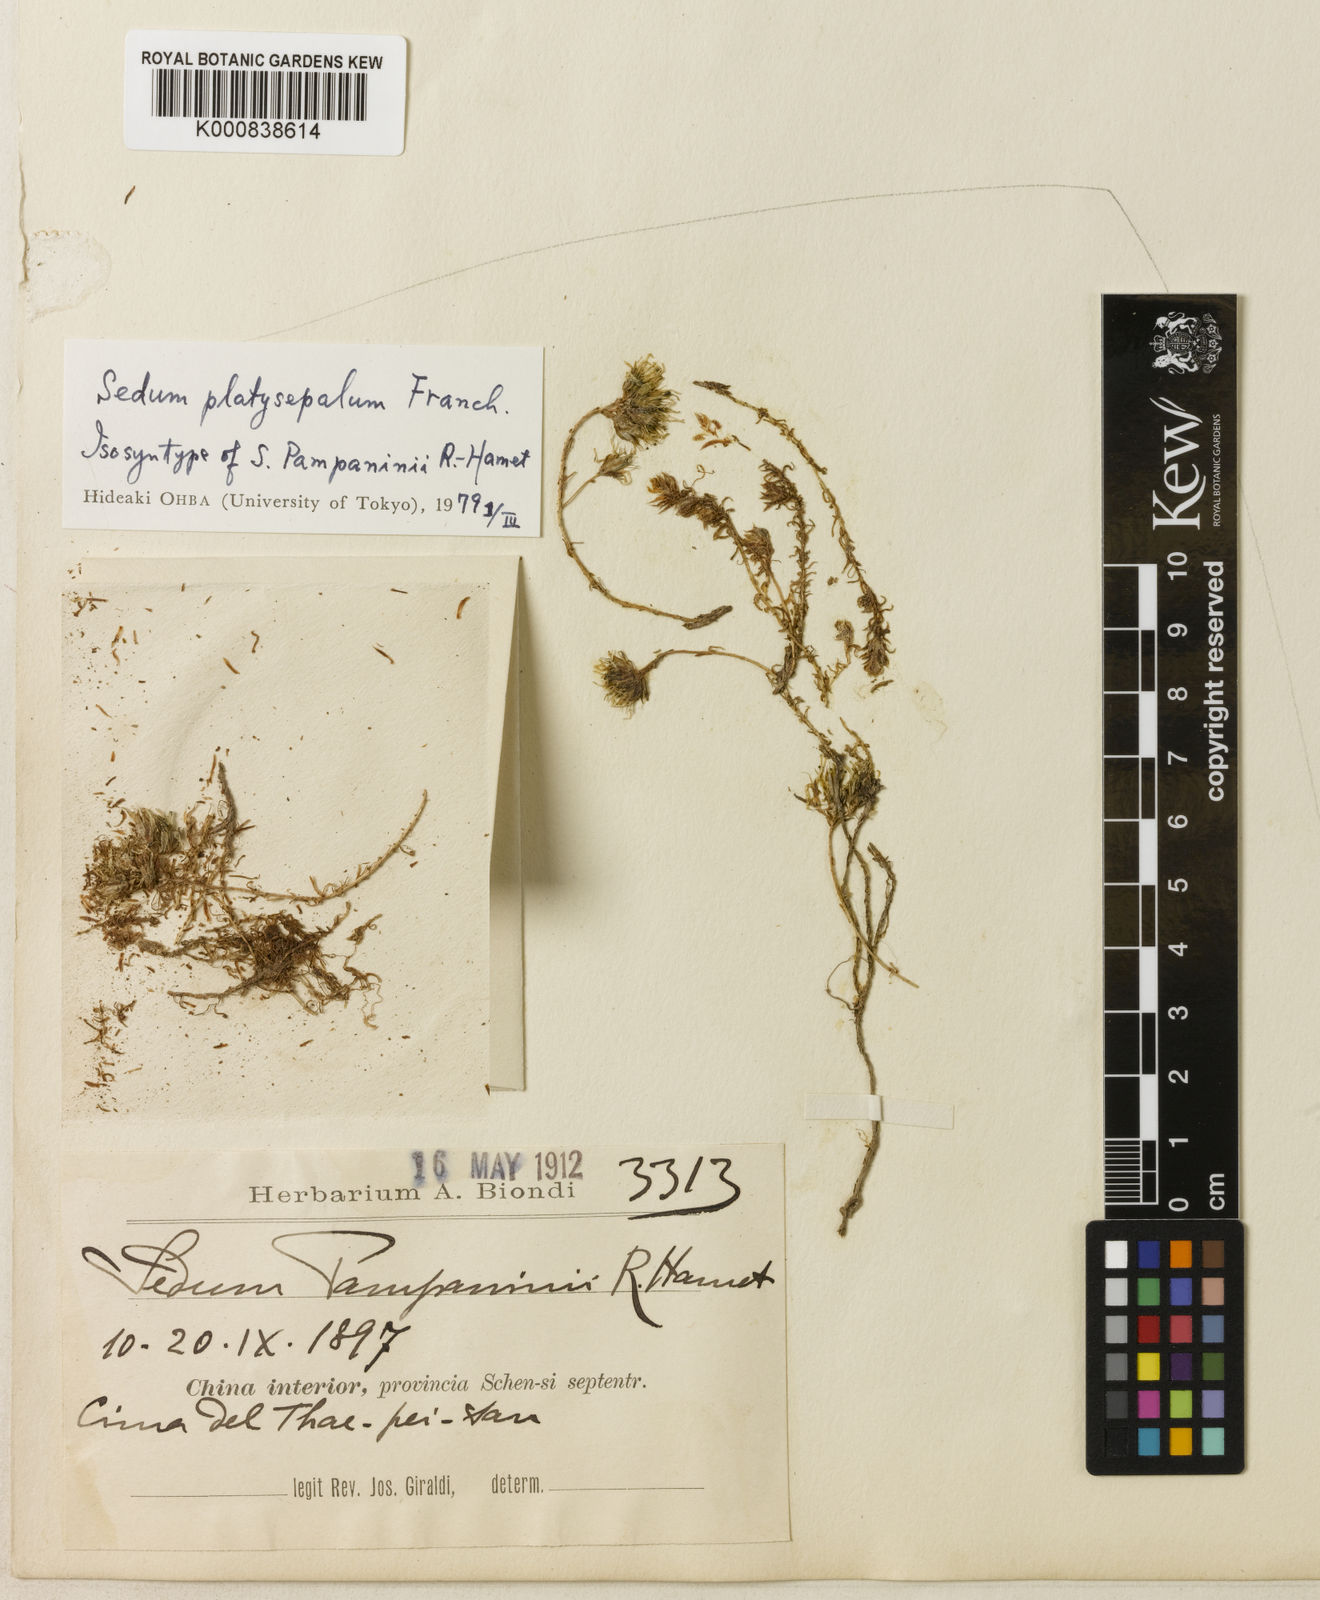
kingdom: Plantae
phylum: Tracheophyta
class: Magnoliopsida
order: Saxifragales
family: Crassulaceae
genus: Sedum
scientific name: Sedum platysepalum
